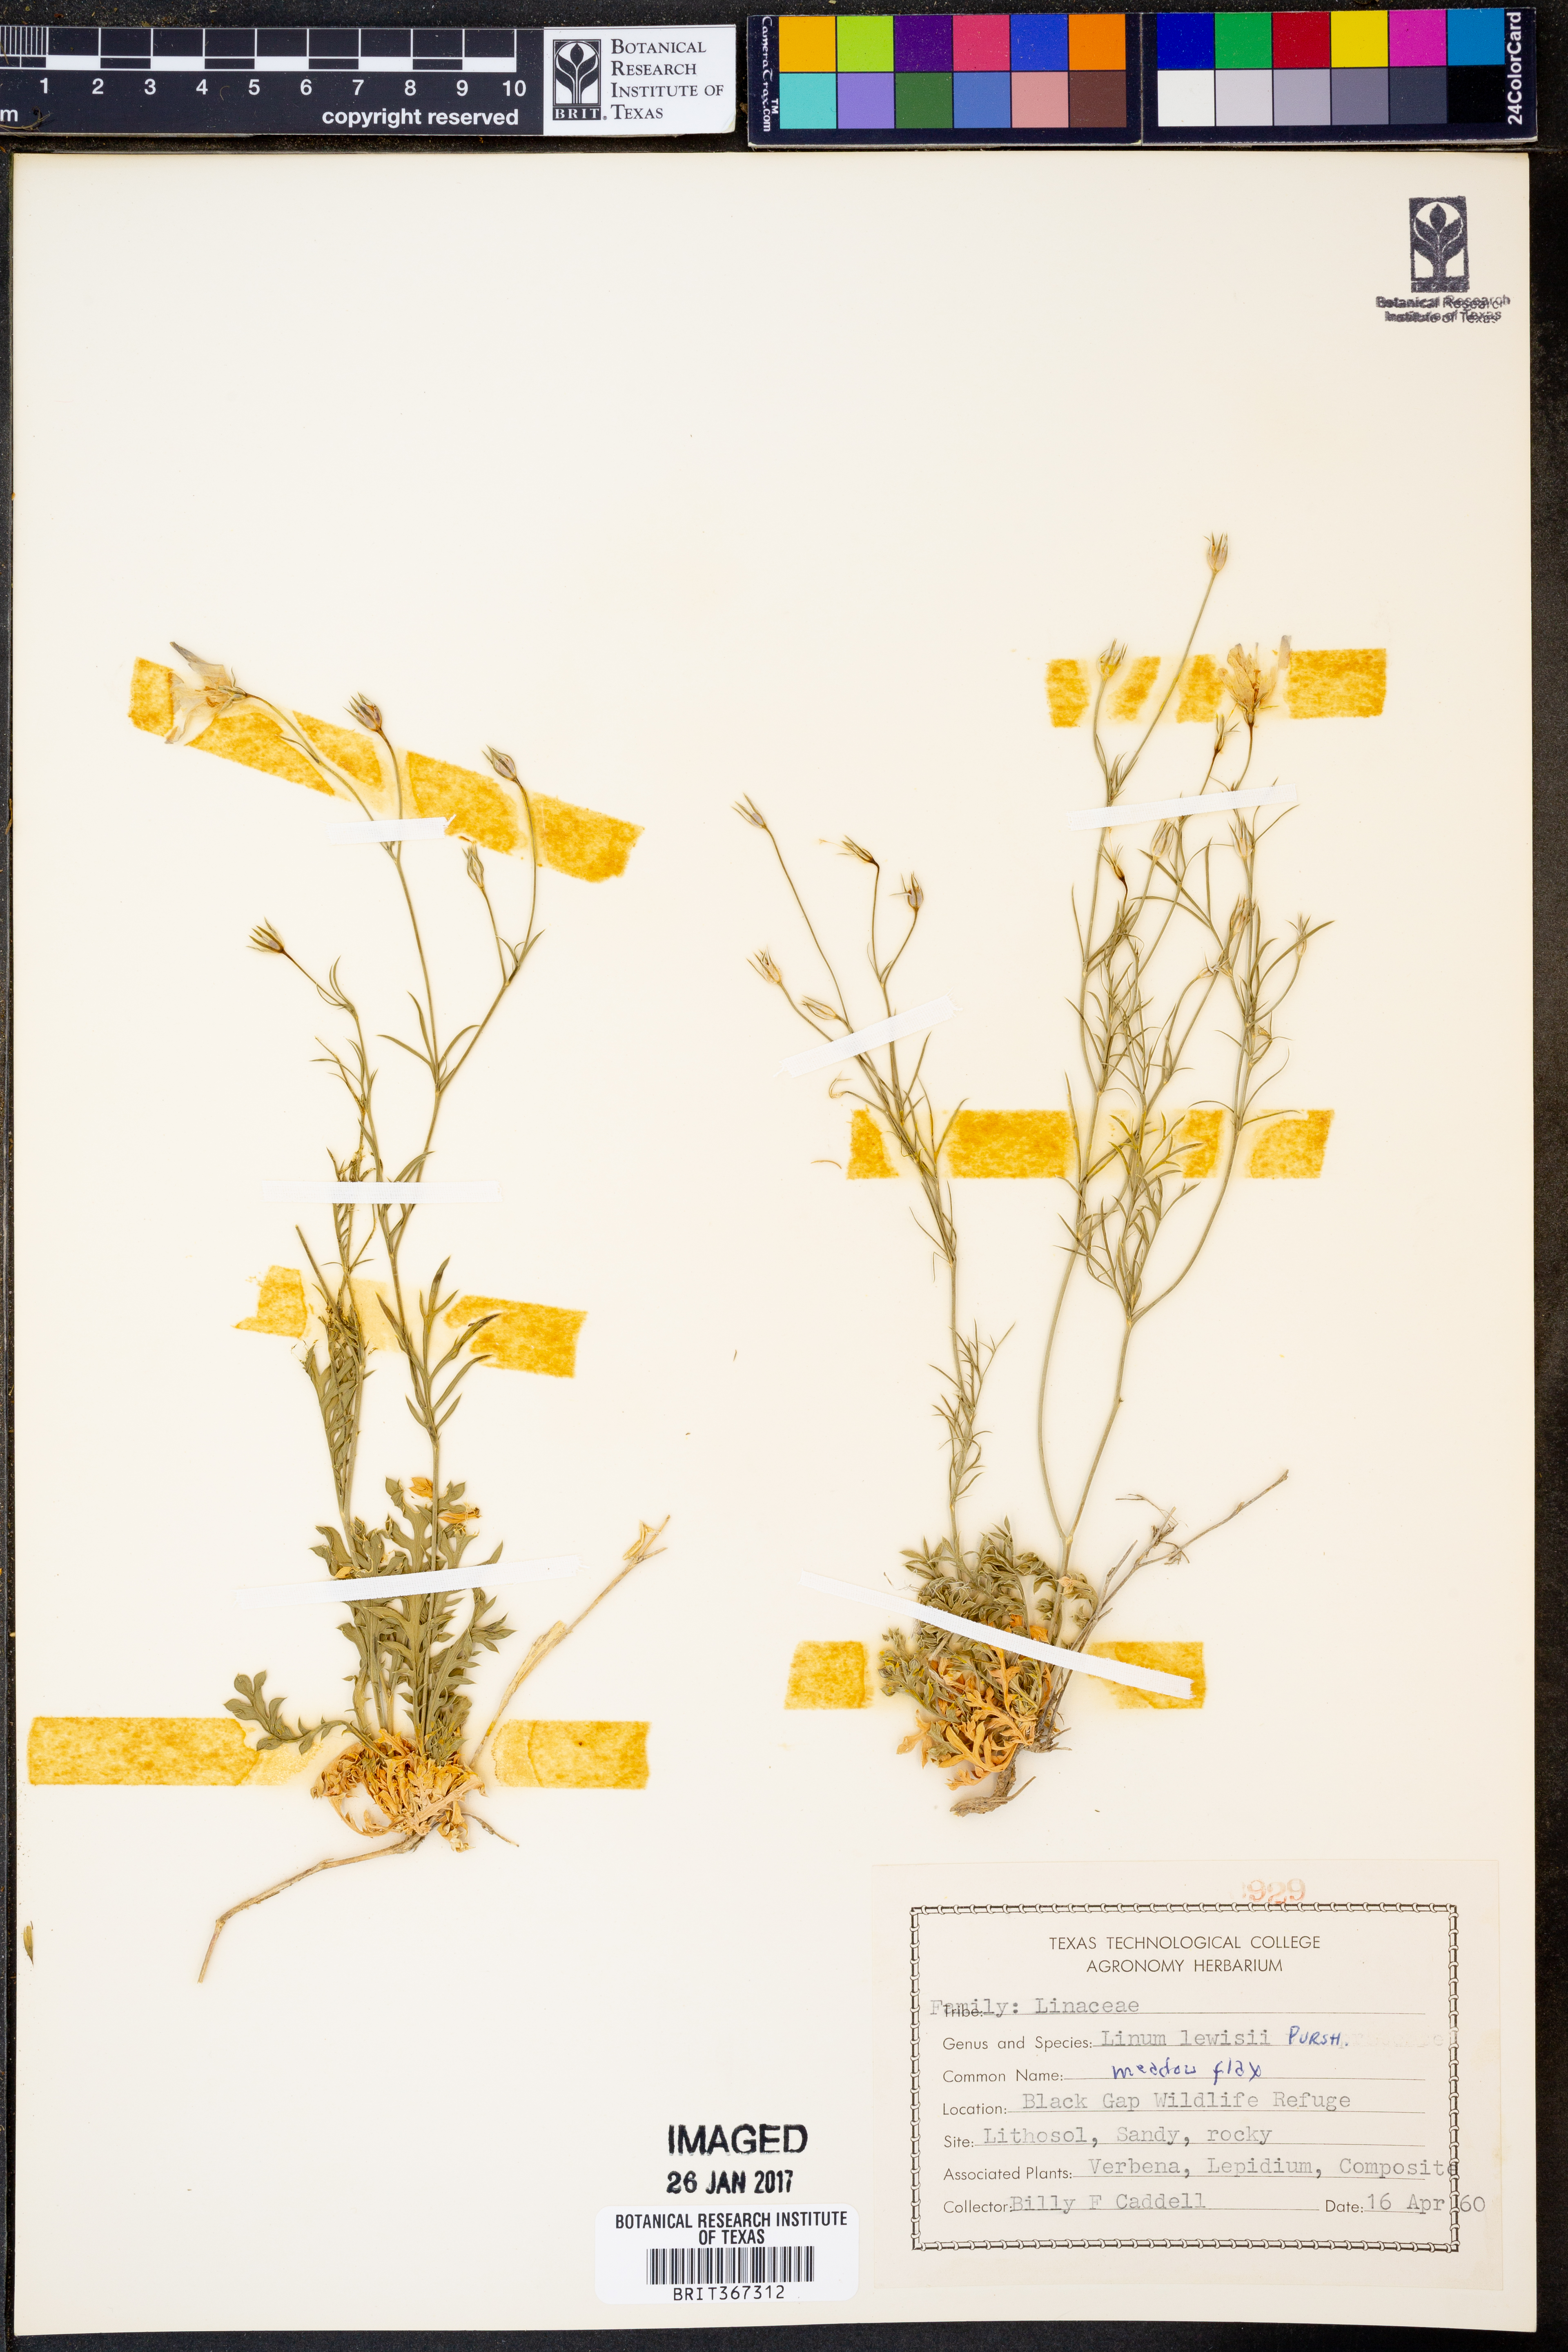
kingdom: Plantae
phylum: Tracheophyta
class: Magnoliopsida
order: Malpighiales
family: Linaceae
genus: Linum
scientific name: Linum lewisii
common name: Prairie flax
